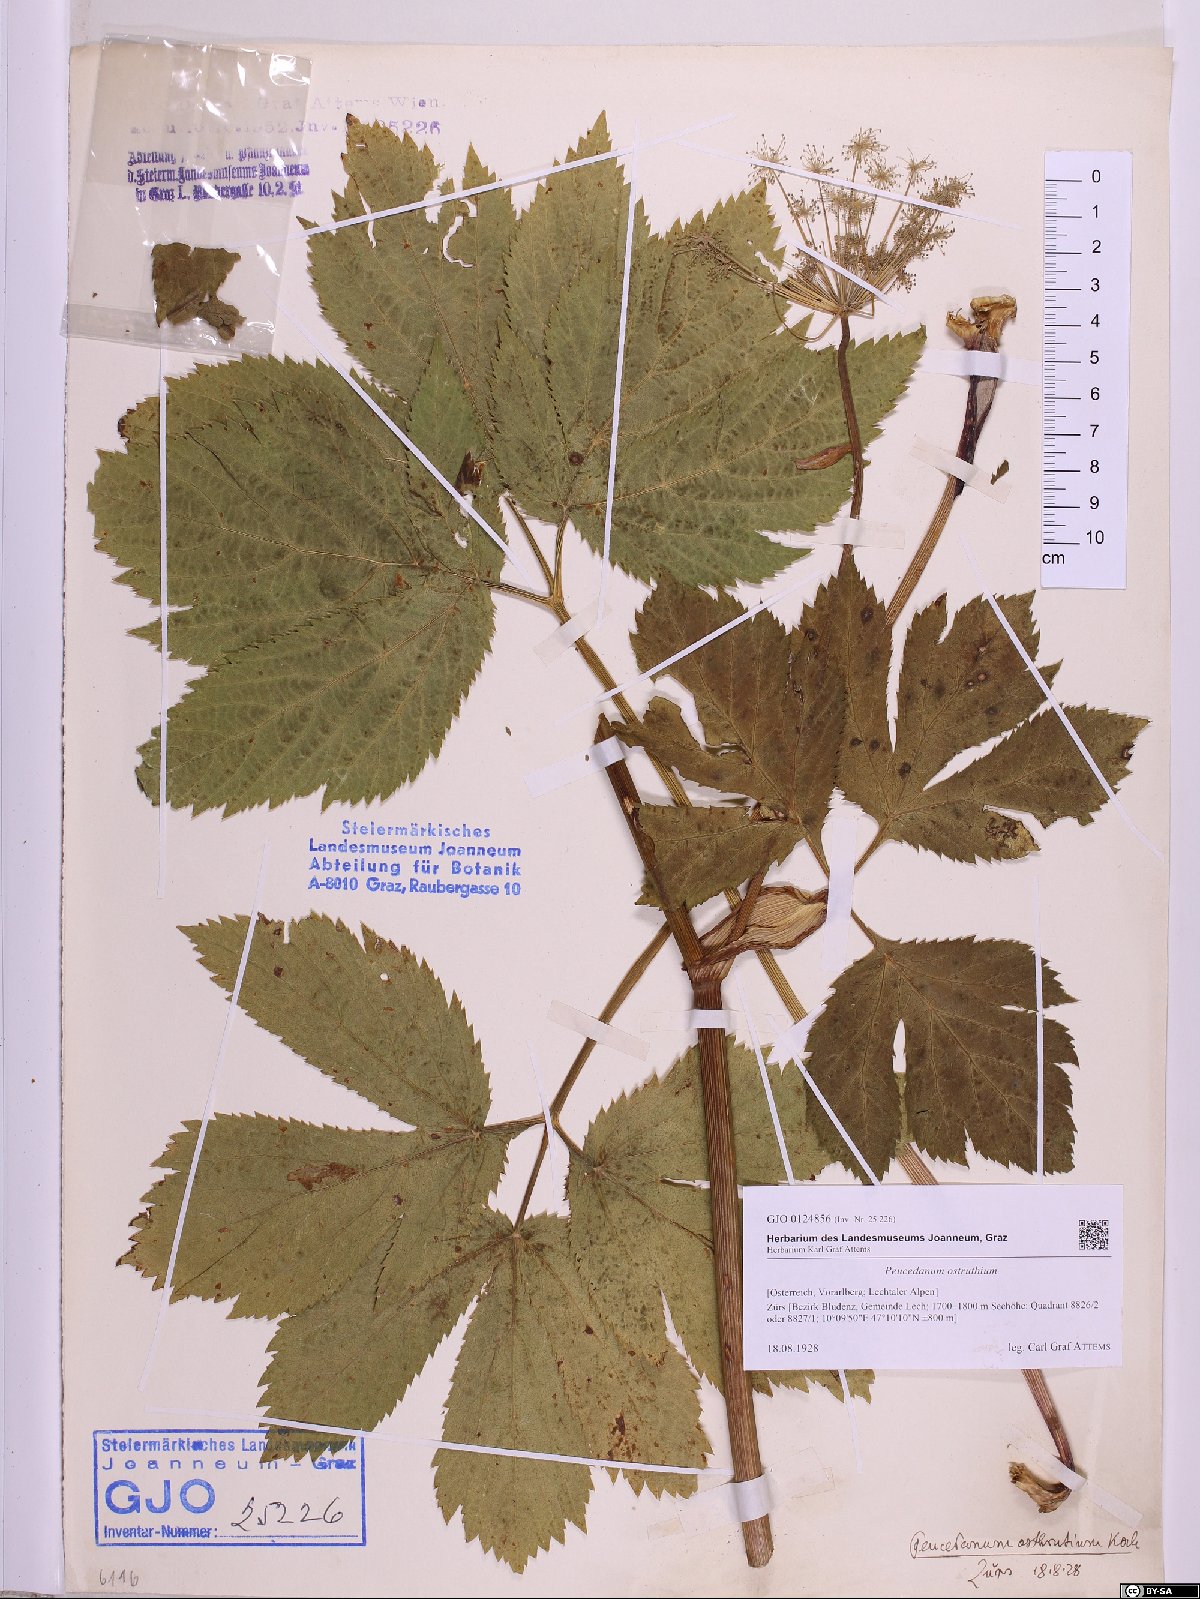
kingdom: Plantae
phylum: Tracheophyta
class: Magnoliopsida
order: Apiales
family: Apiaceae
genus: Imperatoria
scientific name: Imperatoria ostruthium
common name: Masterwort
